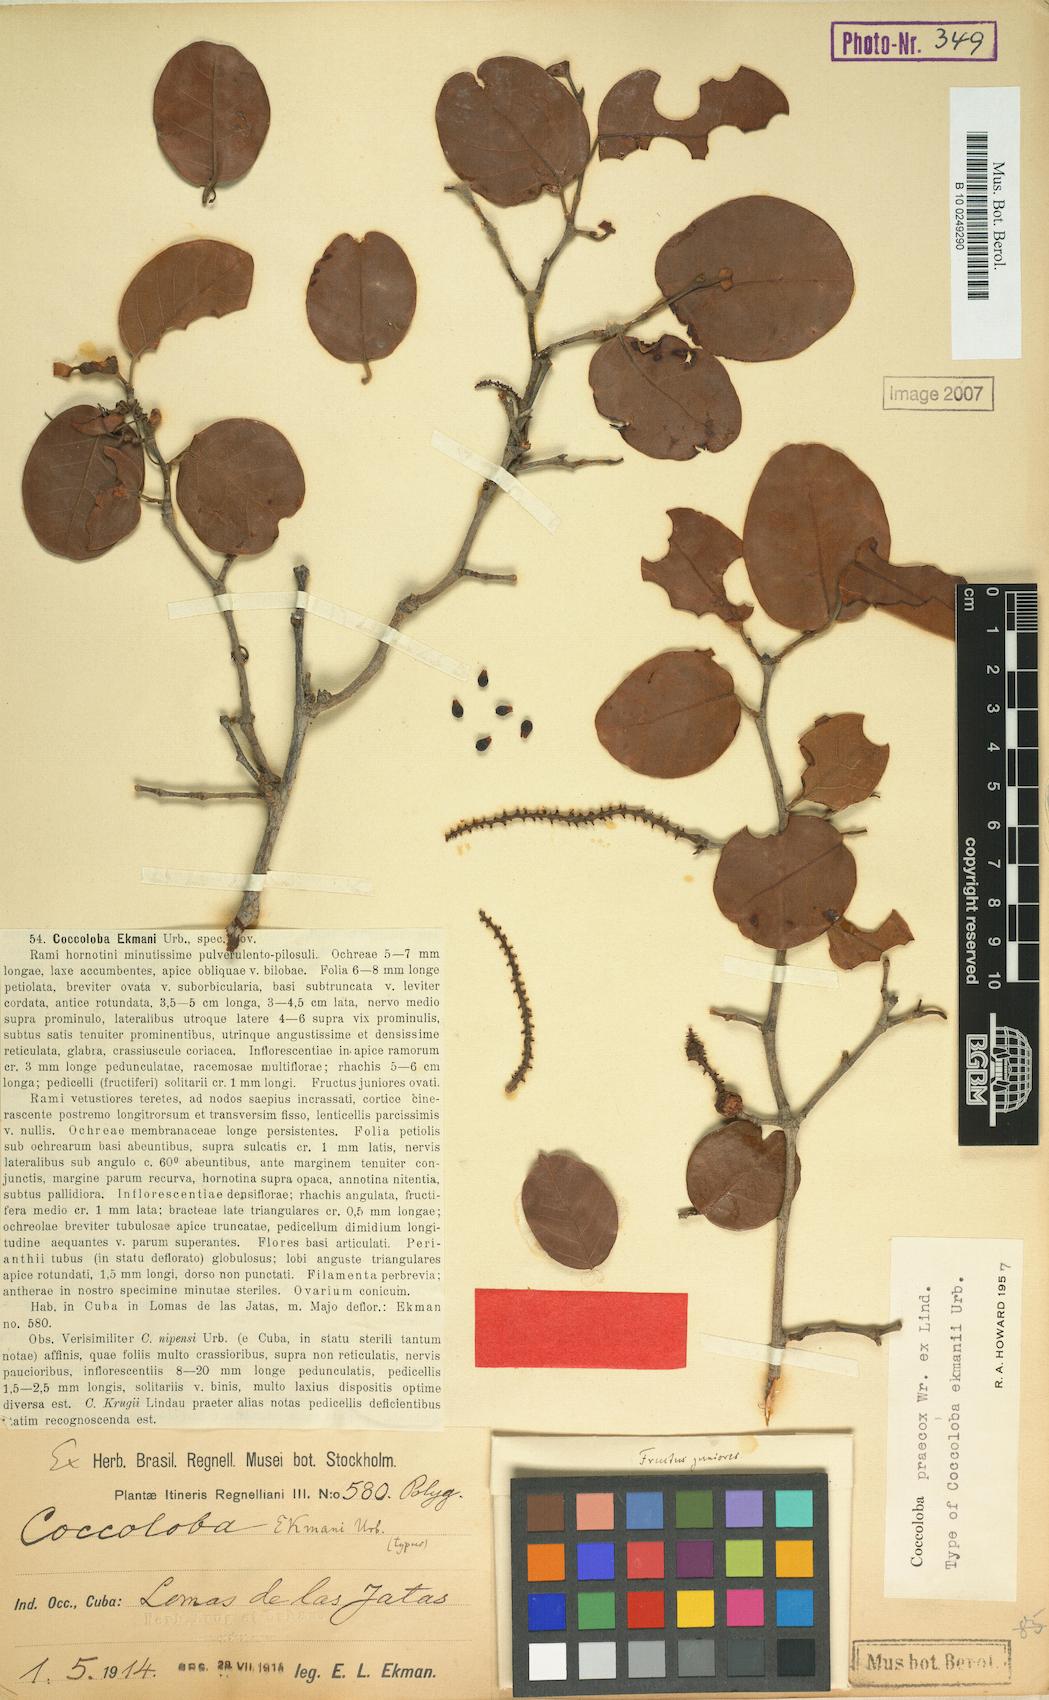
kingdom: Plantae
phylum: Tracheophyta
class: Magnoliopsida
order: Caryophyllales
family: Polygonaceae
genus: Coccoloba
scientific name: Coccoloba praecox
